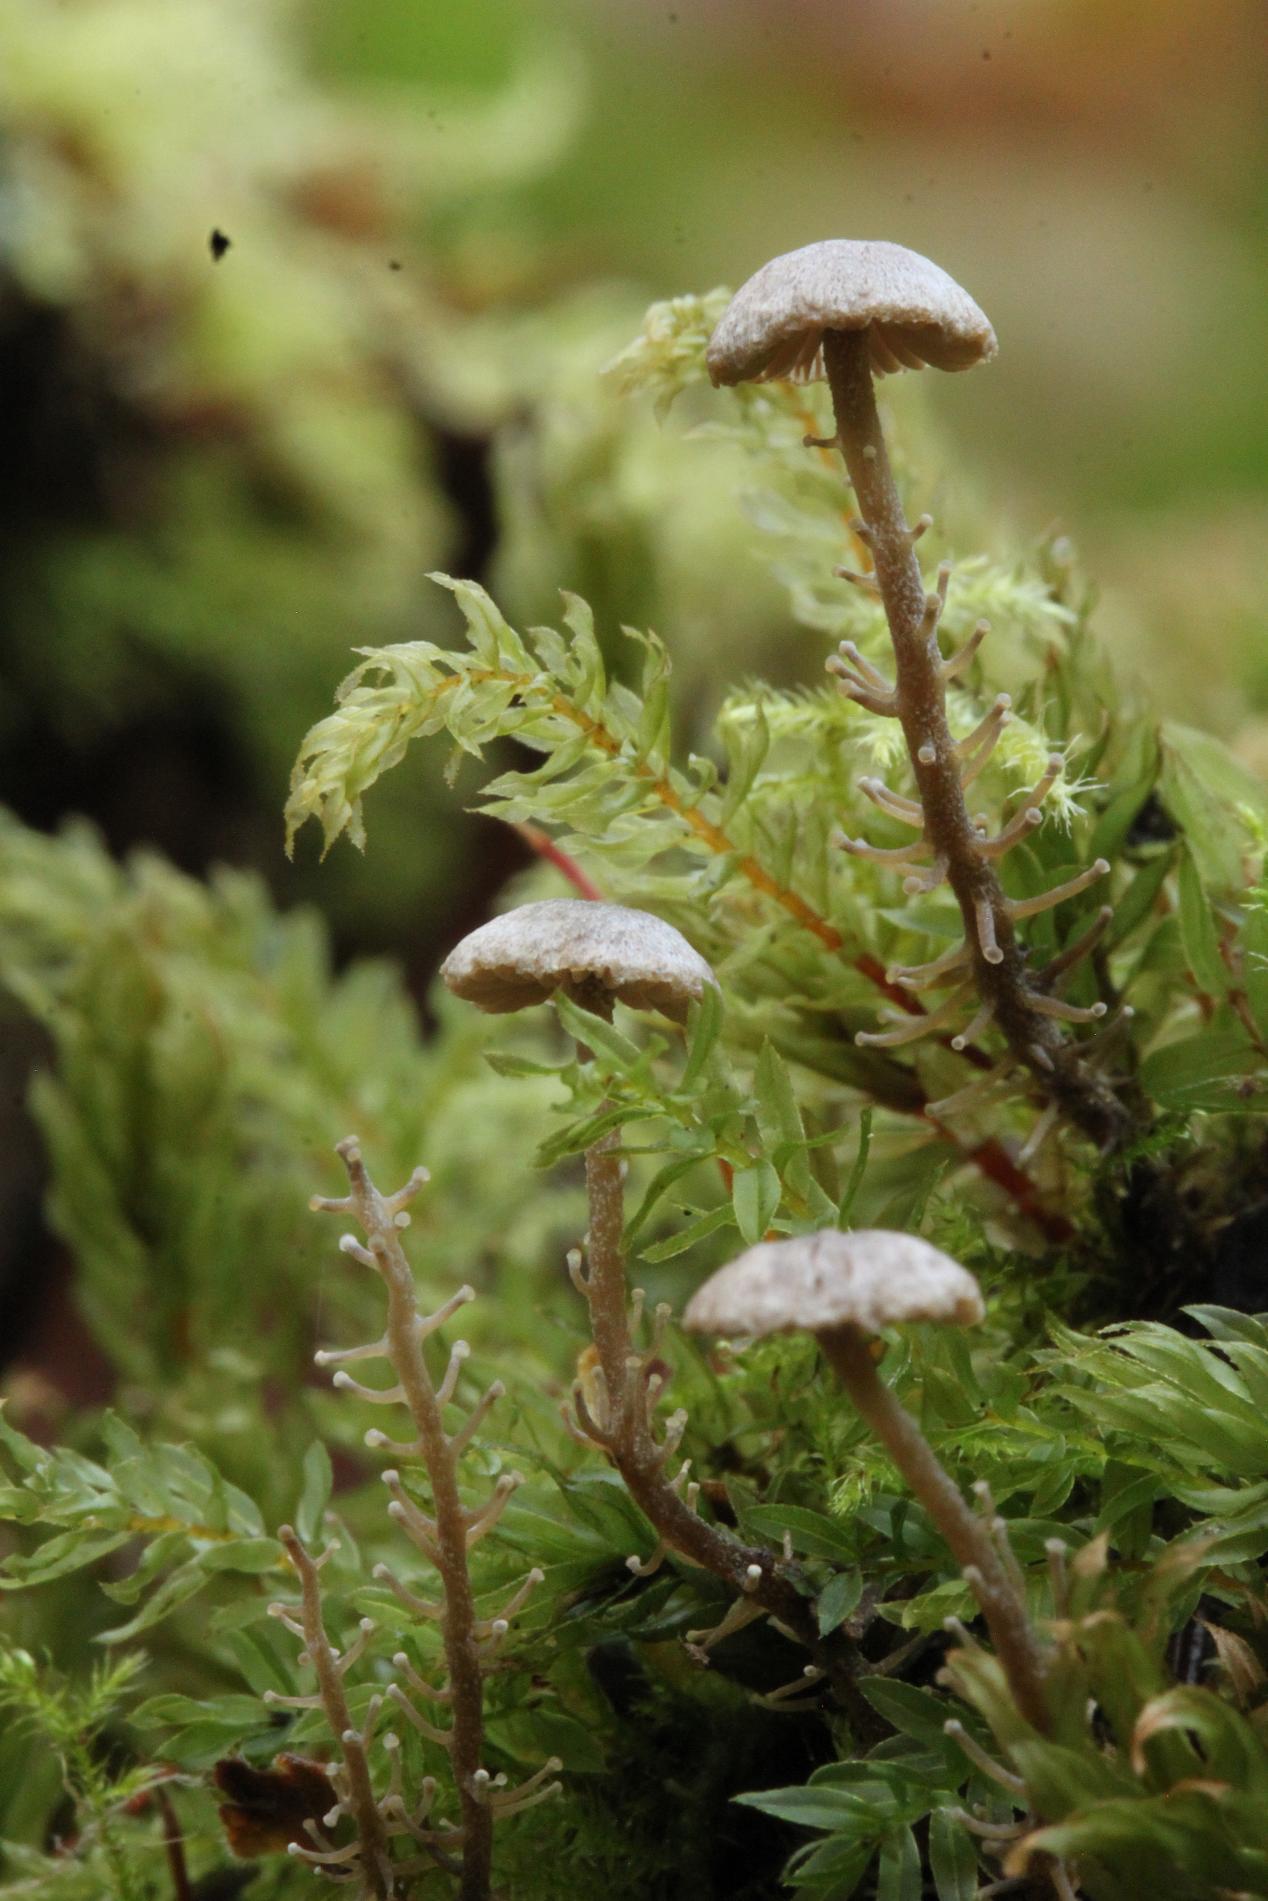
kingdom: Fungi
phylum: Basidiomycota
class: Agaricomycetes
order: Agaricales
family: Tricholomataceae
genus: Dendrocollybia
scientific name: Dendrocollybia racemosa
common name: grenet lighat
